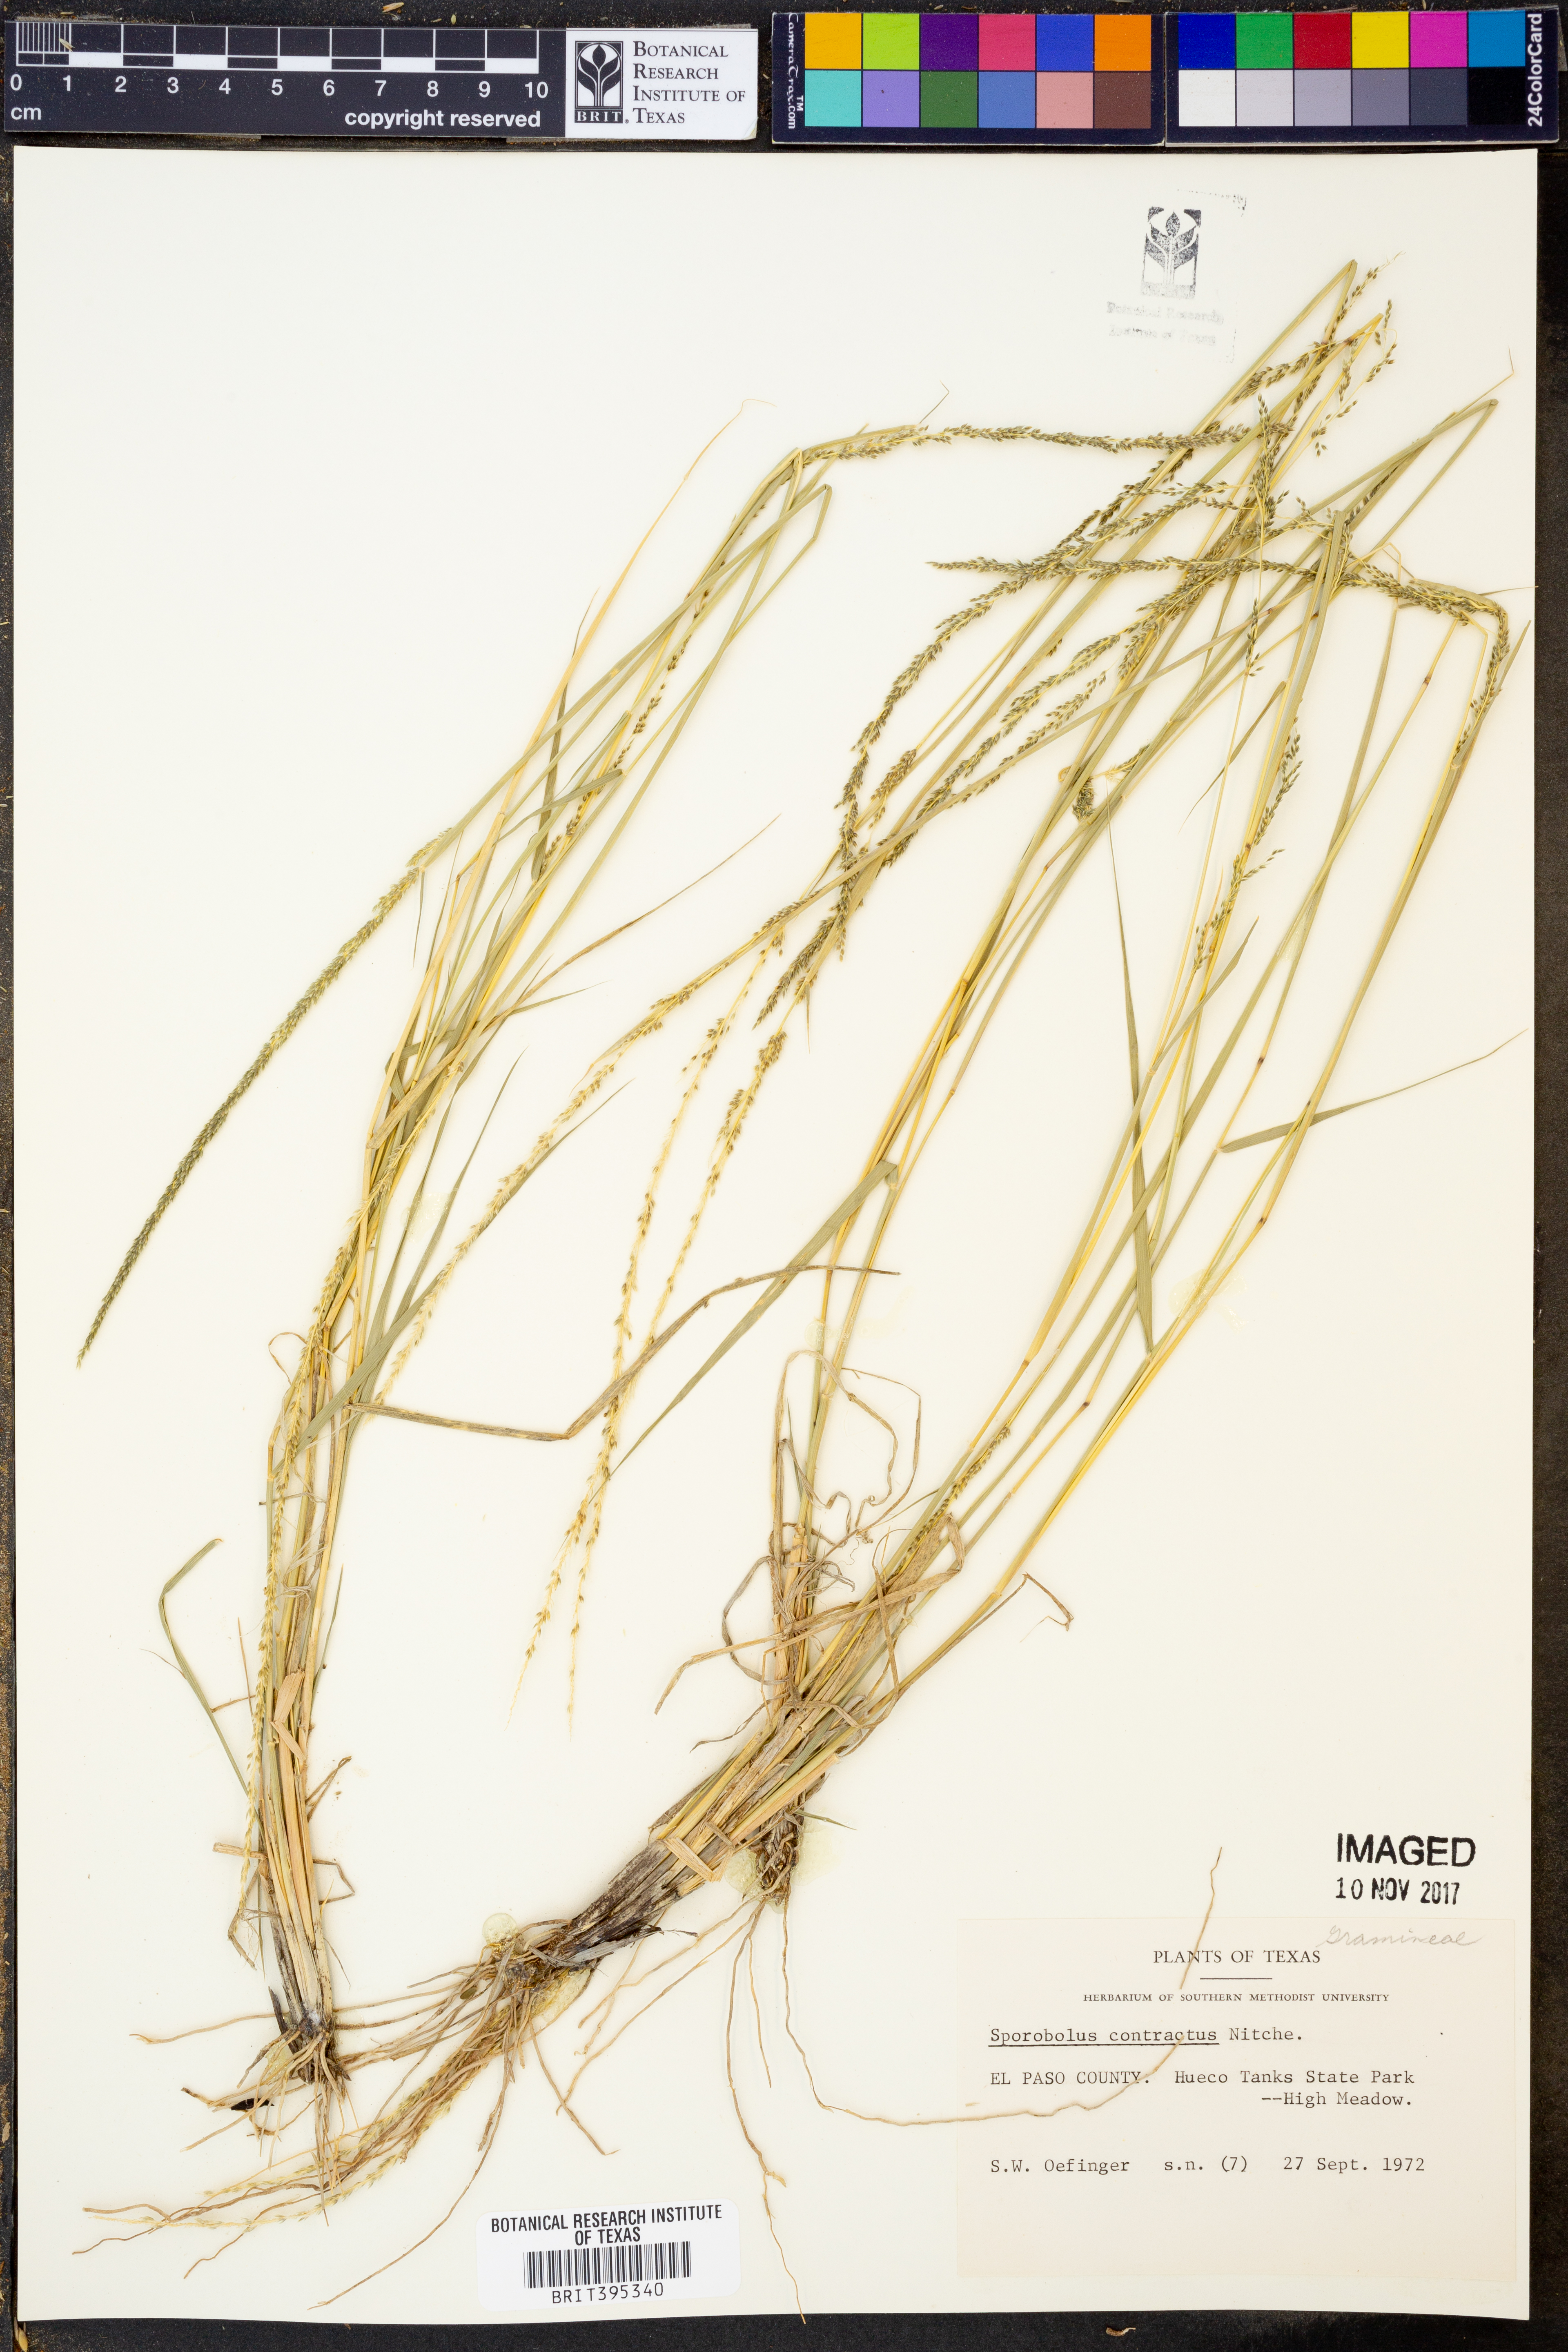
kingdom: Plantae
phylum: Tracheophyta
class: Liliopsida
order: Poales
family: Poaceae
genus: Sporobolus
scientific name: Sporobolus contractus
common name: Spike dropseed
